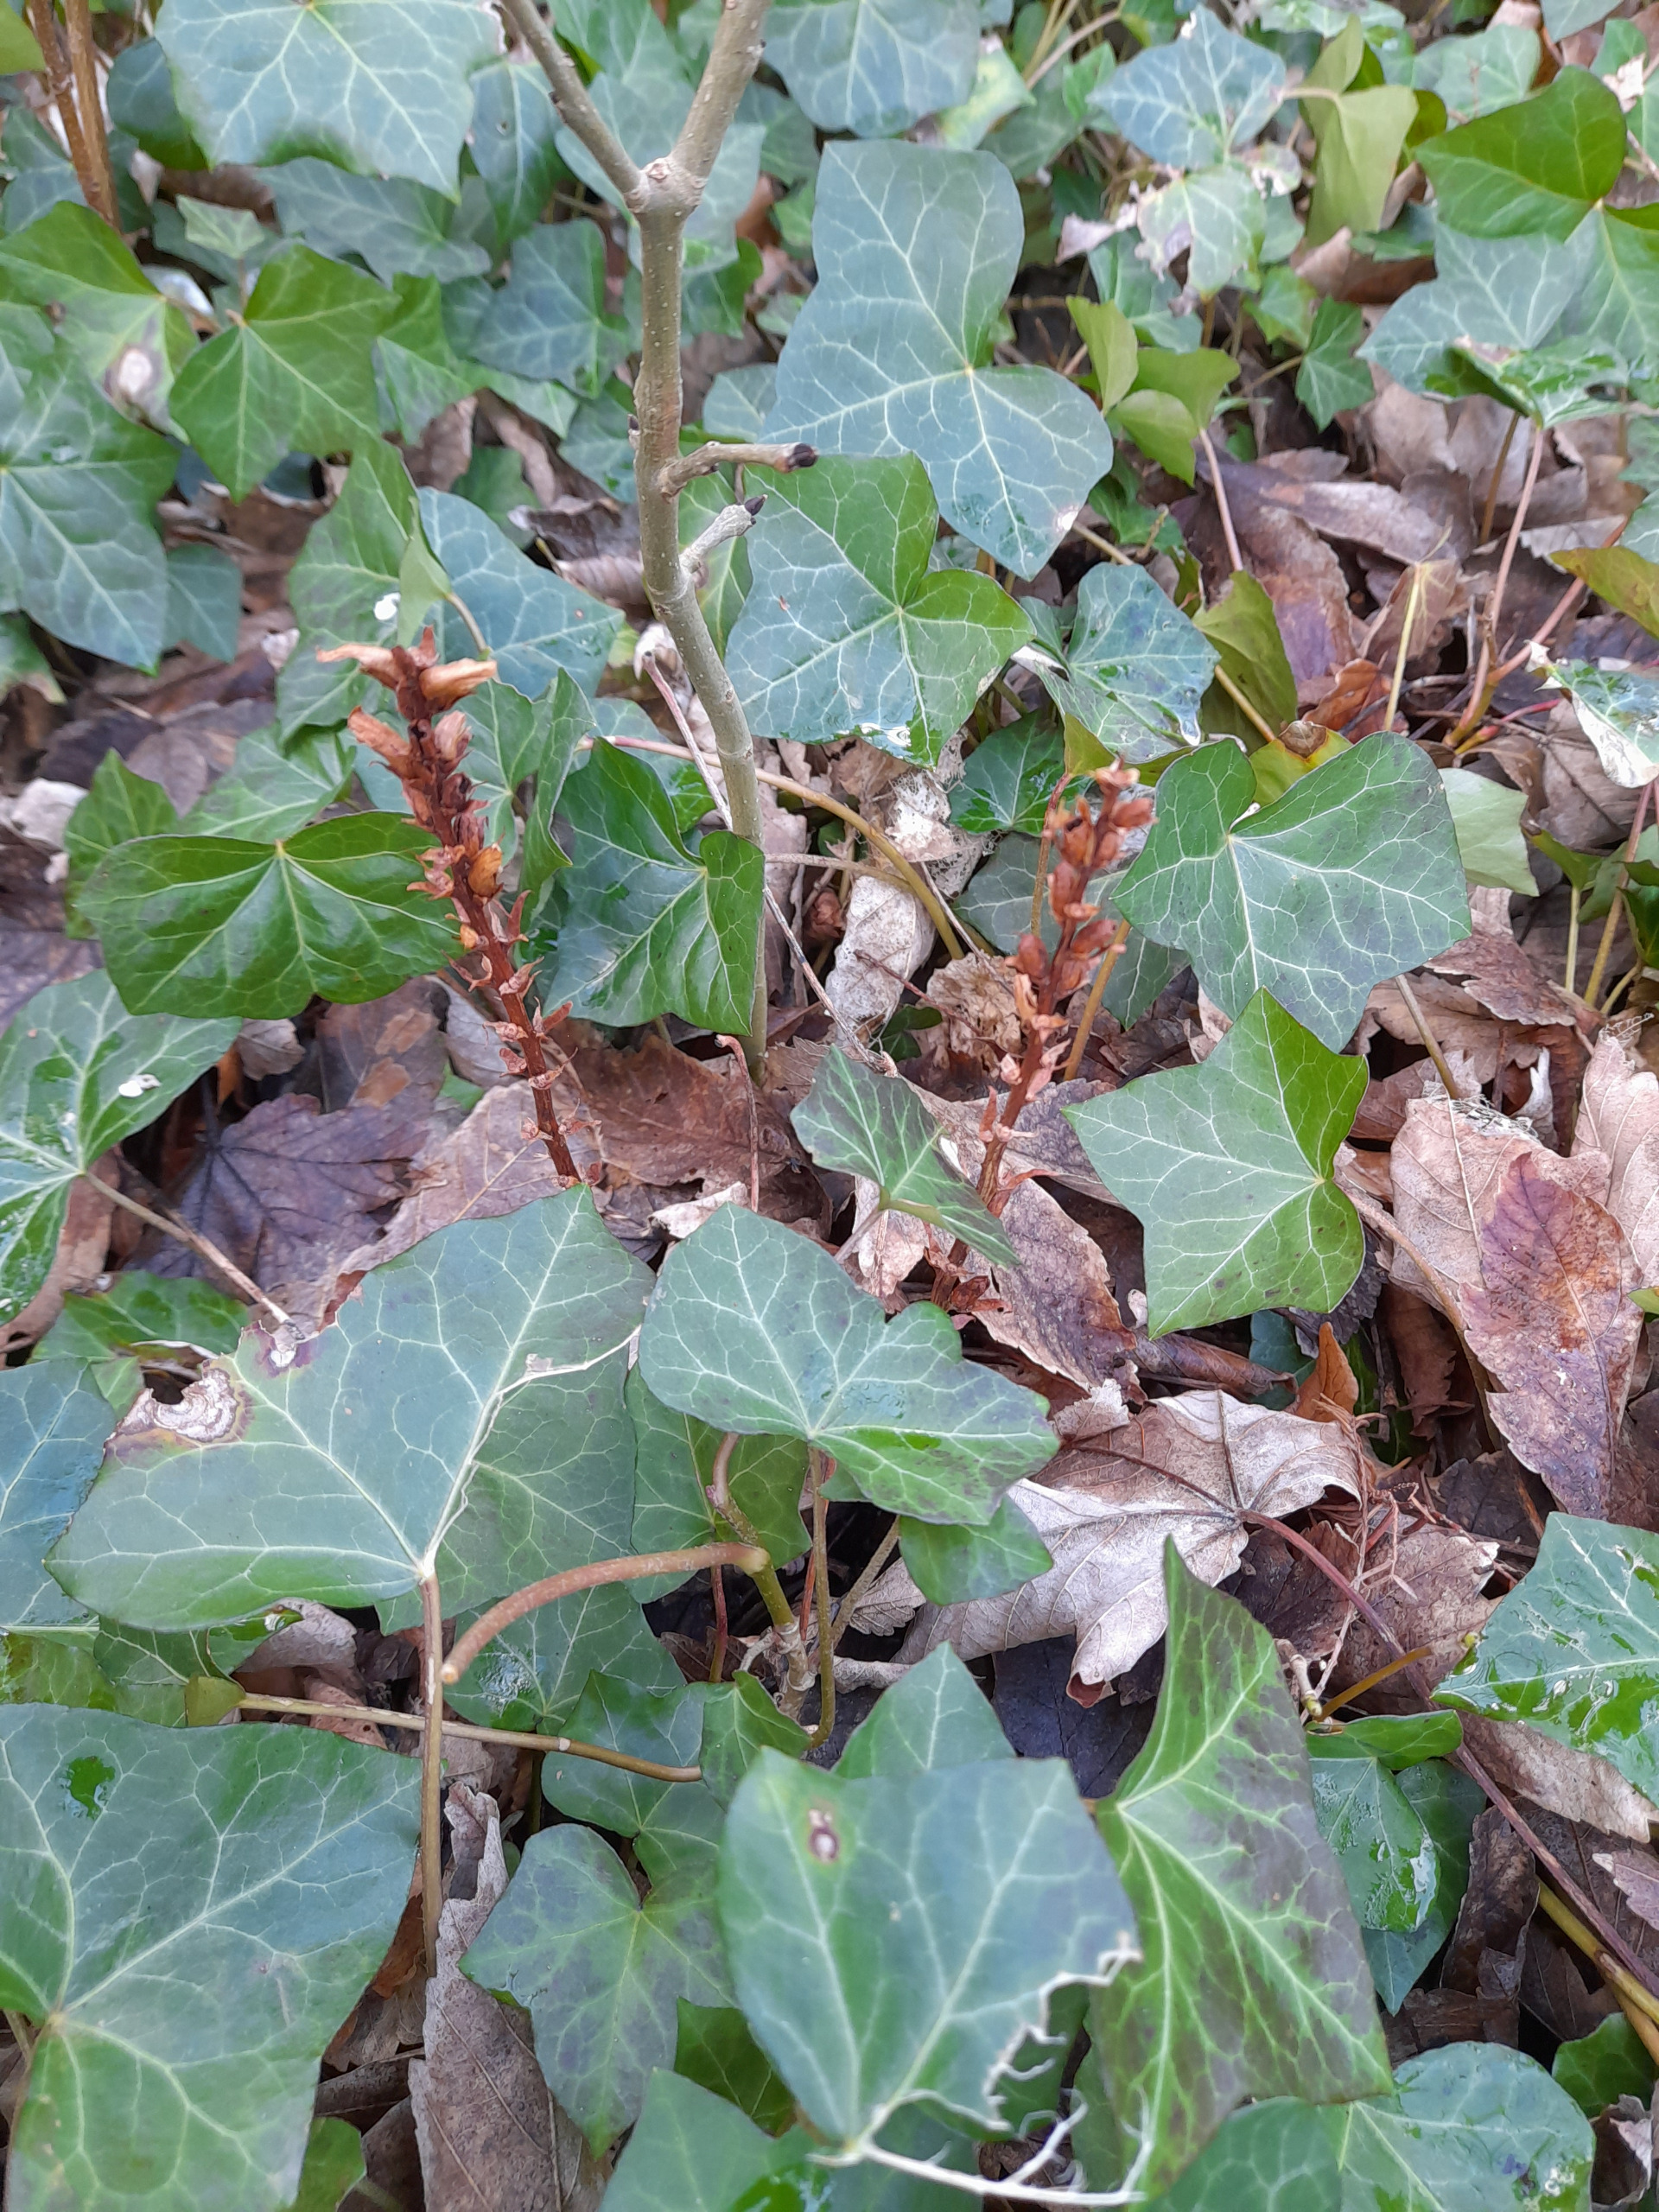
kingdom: Plantae
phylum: Tracheophyta
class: Magnoliopsida
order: Lamiales
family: Orobanchaceae
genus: Orobanche
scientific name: Orobanche hederae
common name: Vedbend-gyvelkvæler
